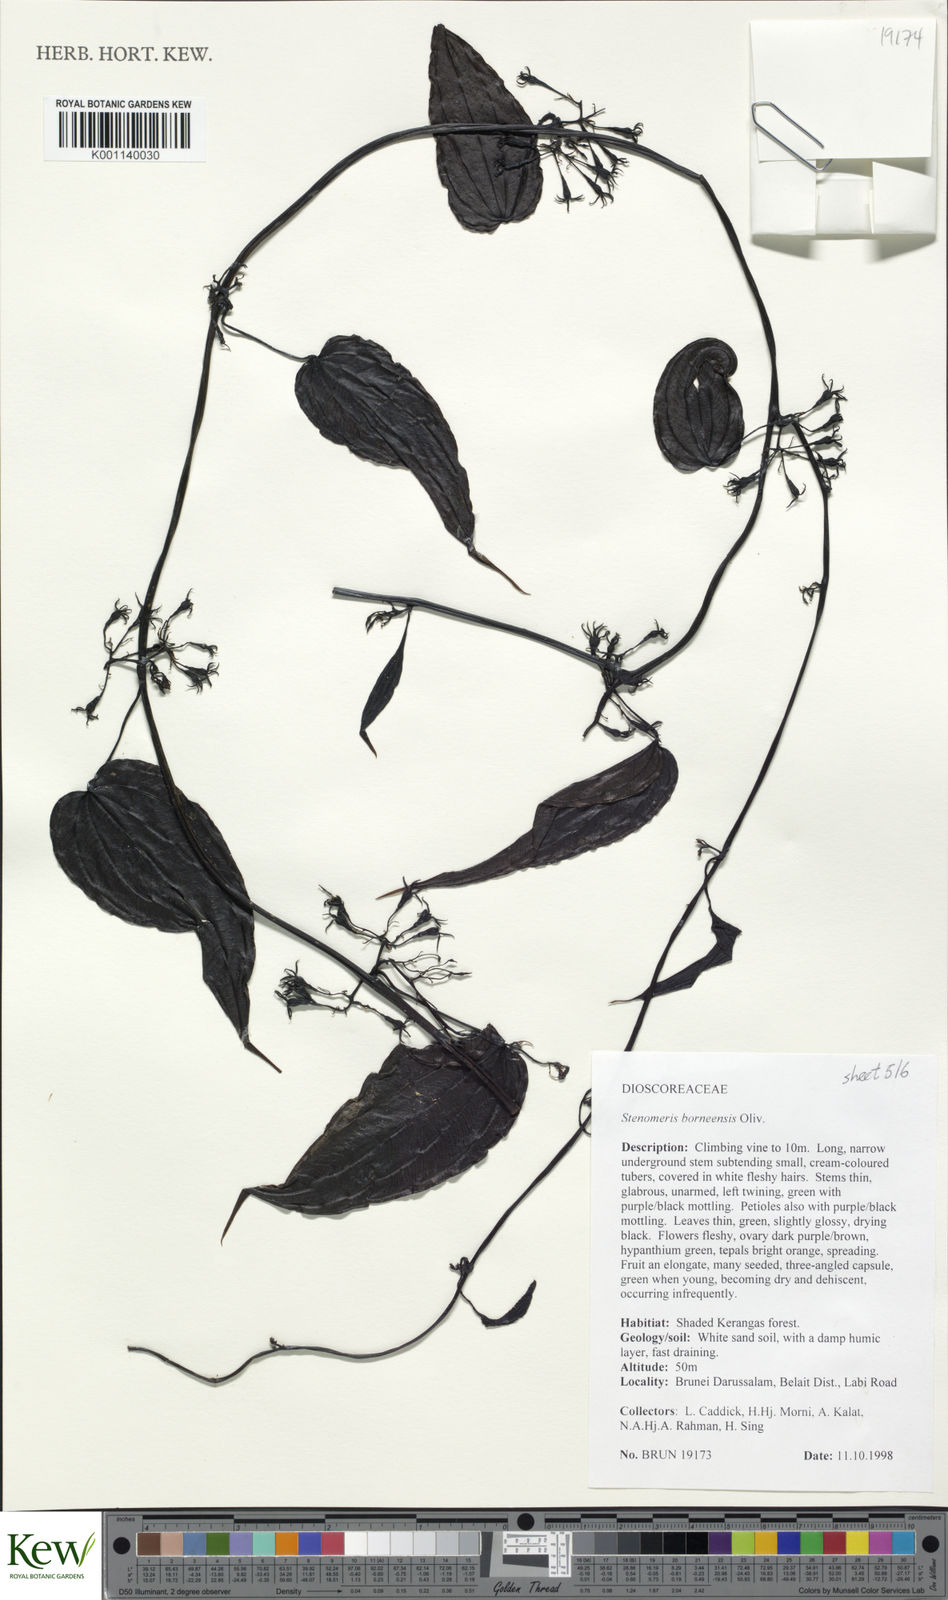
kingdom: Plantae
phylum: Tracheophyta
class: Liliopsida
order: Dioscoreales
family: Dioscoreaceae
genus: Stenomeris
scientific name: Stenomeris borneensis
